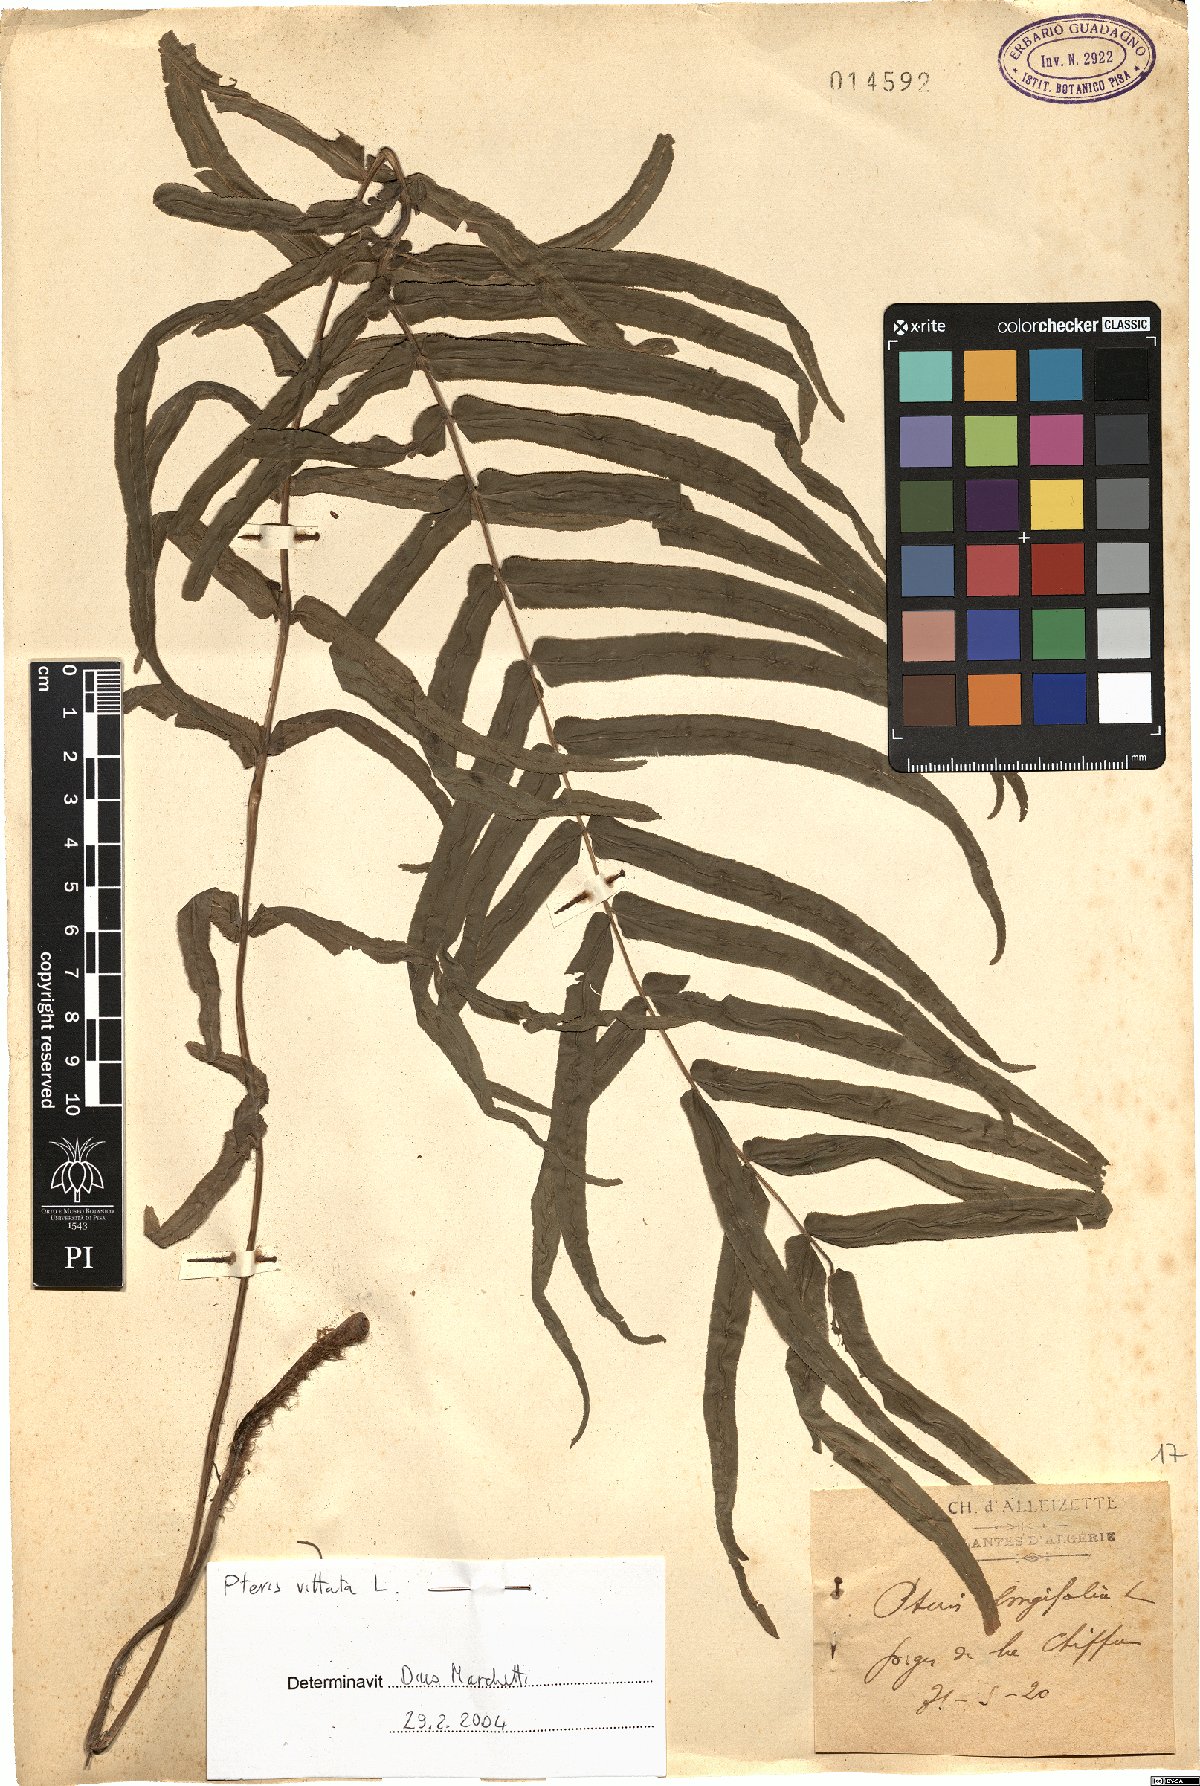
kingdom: Plantae
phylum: Tracheophyta
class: Polypodiopsida
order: Polypodiales
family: Pteridaceae
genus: Pteris
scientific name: Pteris vittata
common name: Ladder brake
